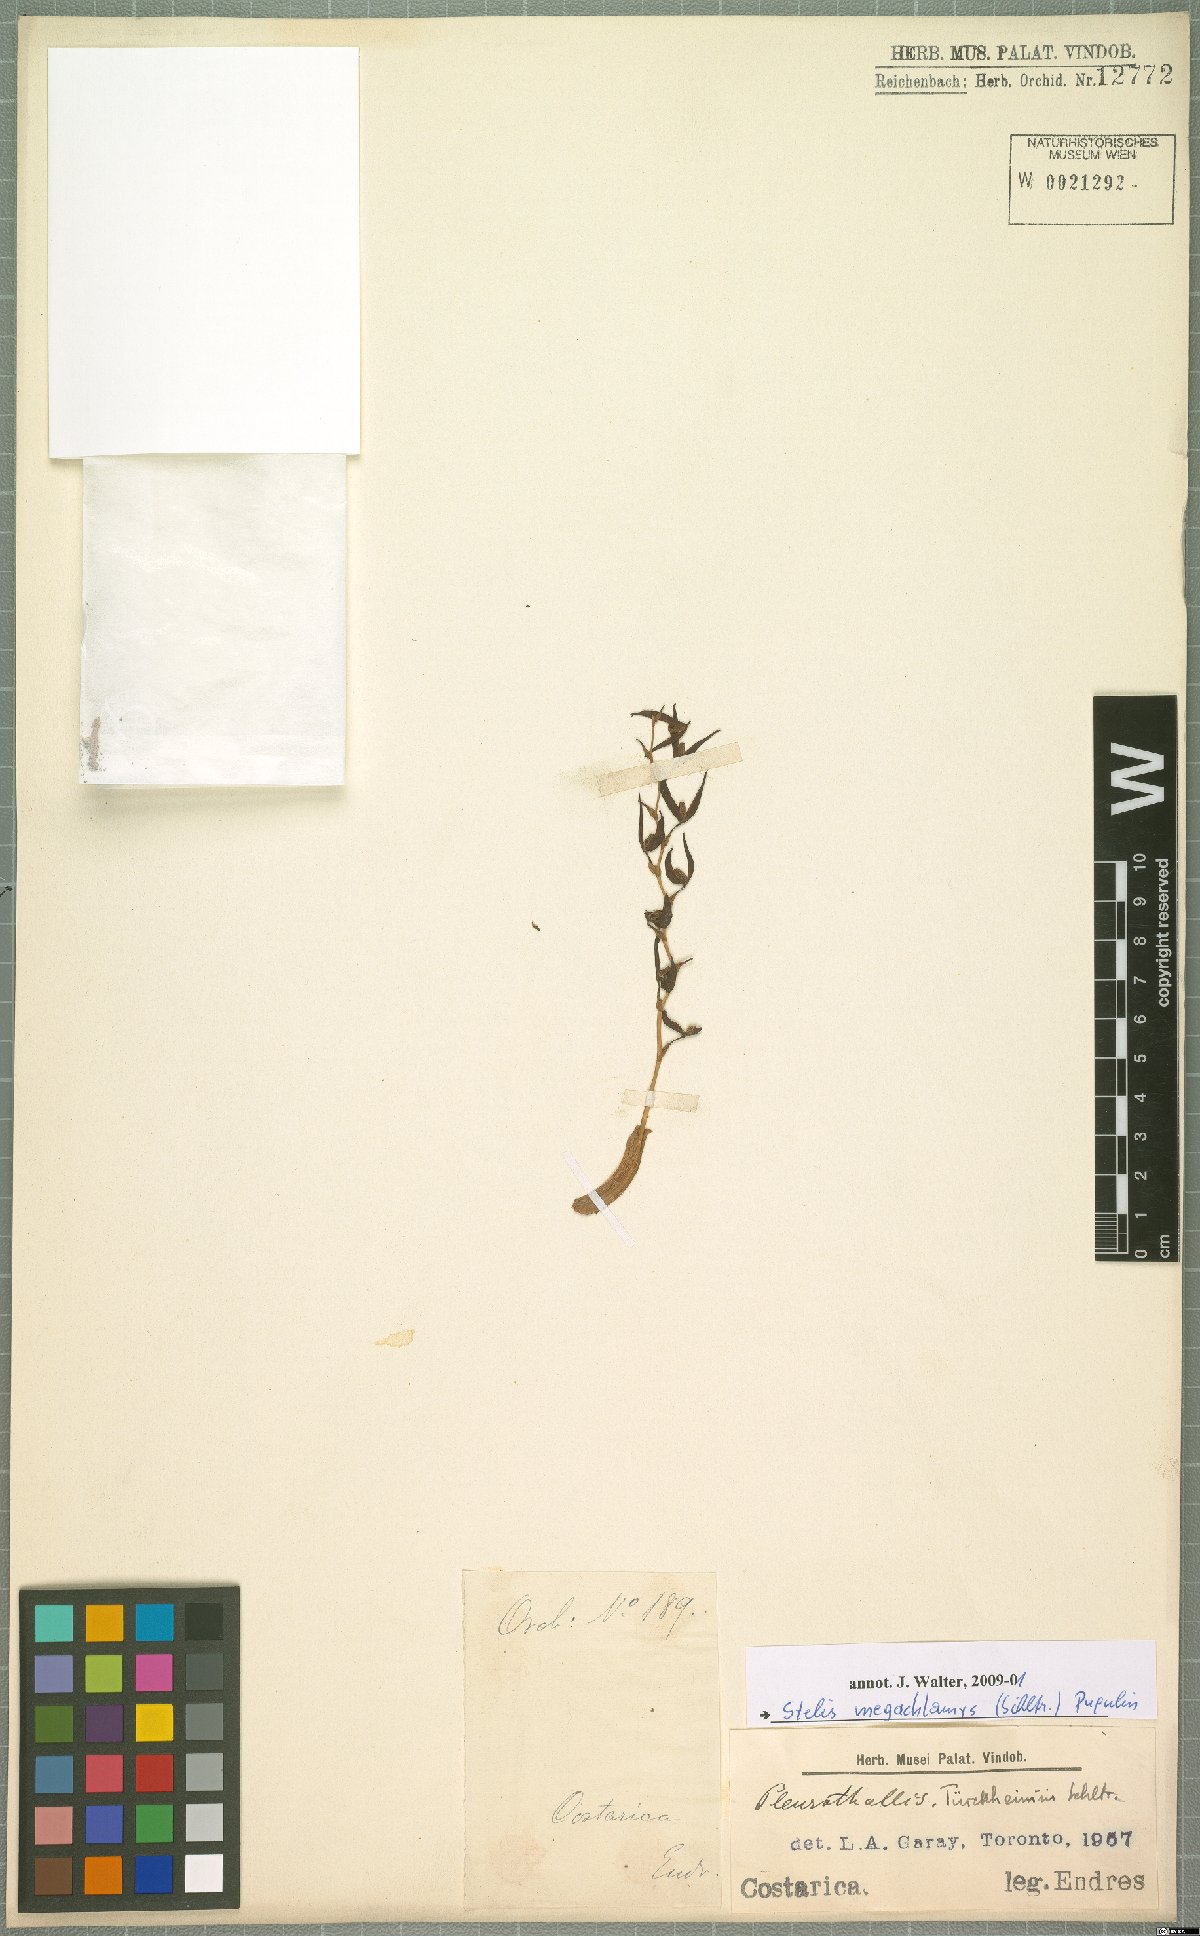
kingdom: Plantae
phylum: Tracheophyta
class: Liliopsida
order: Asparagales
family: Orchidaceae
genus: Stelis
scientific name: Stelis megachlamys
